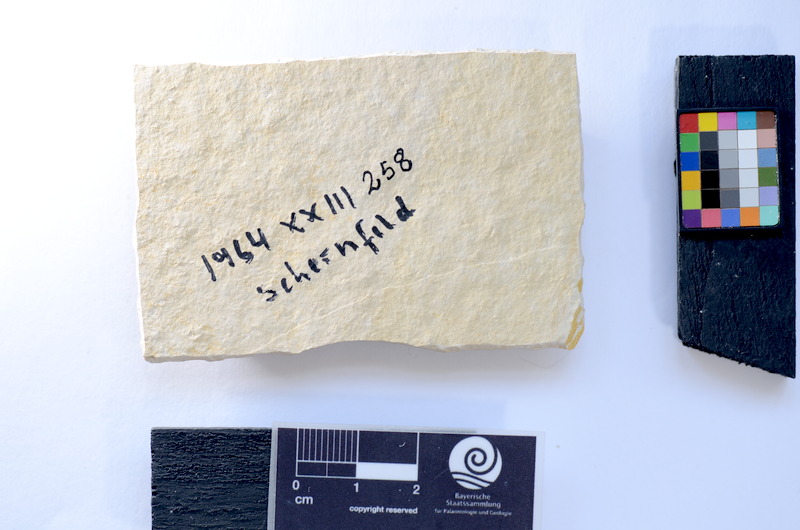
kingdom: Animalia
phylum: Chordata
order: Salmoniformes
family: Orthogonikleithridae
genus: Leptolepides
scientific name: Leptolepides
